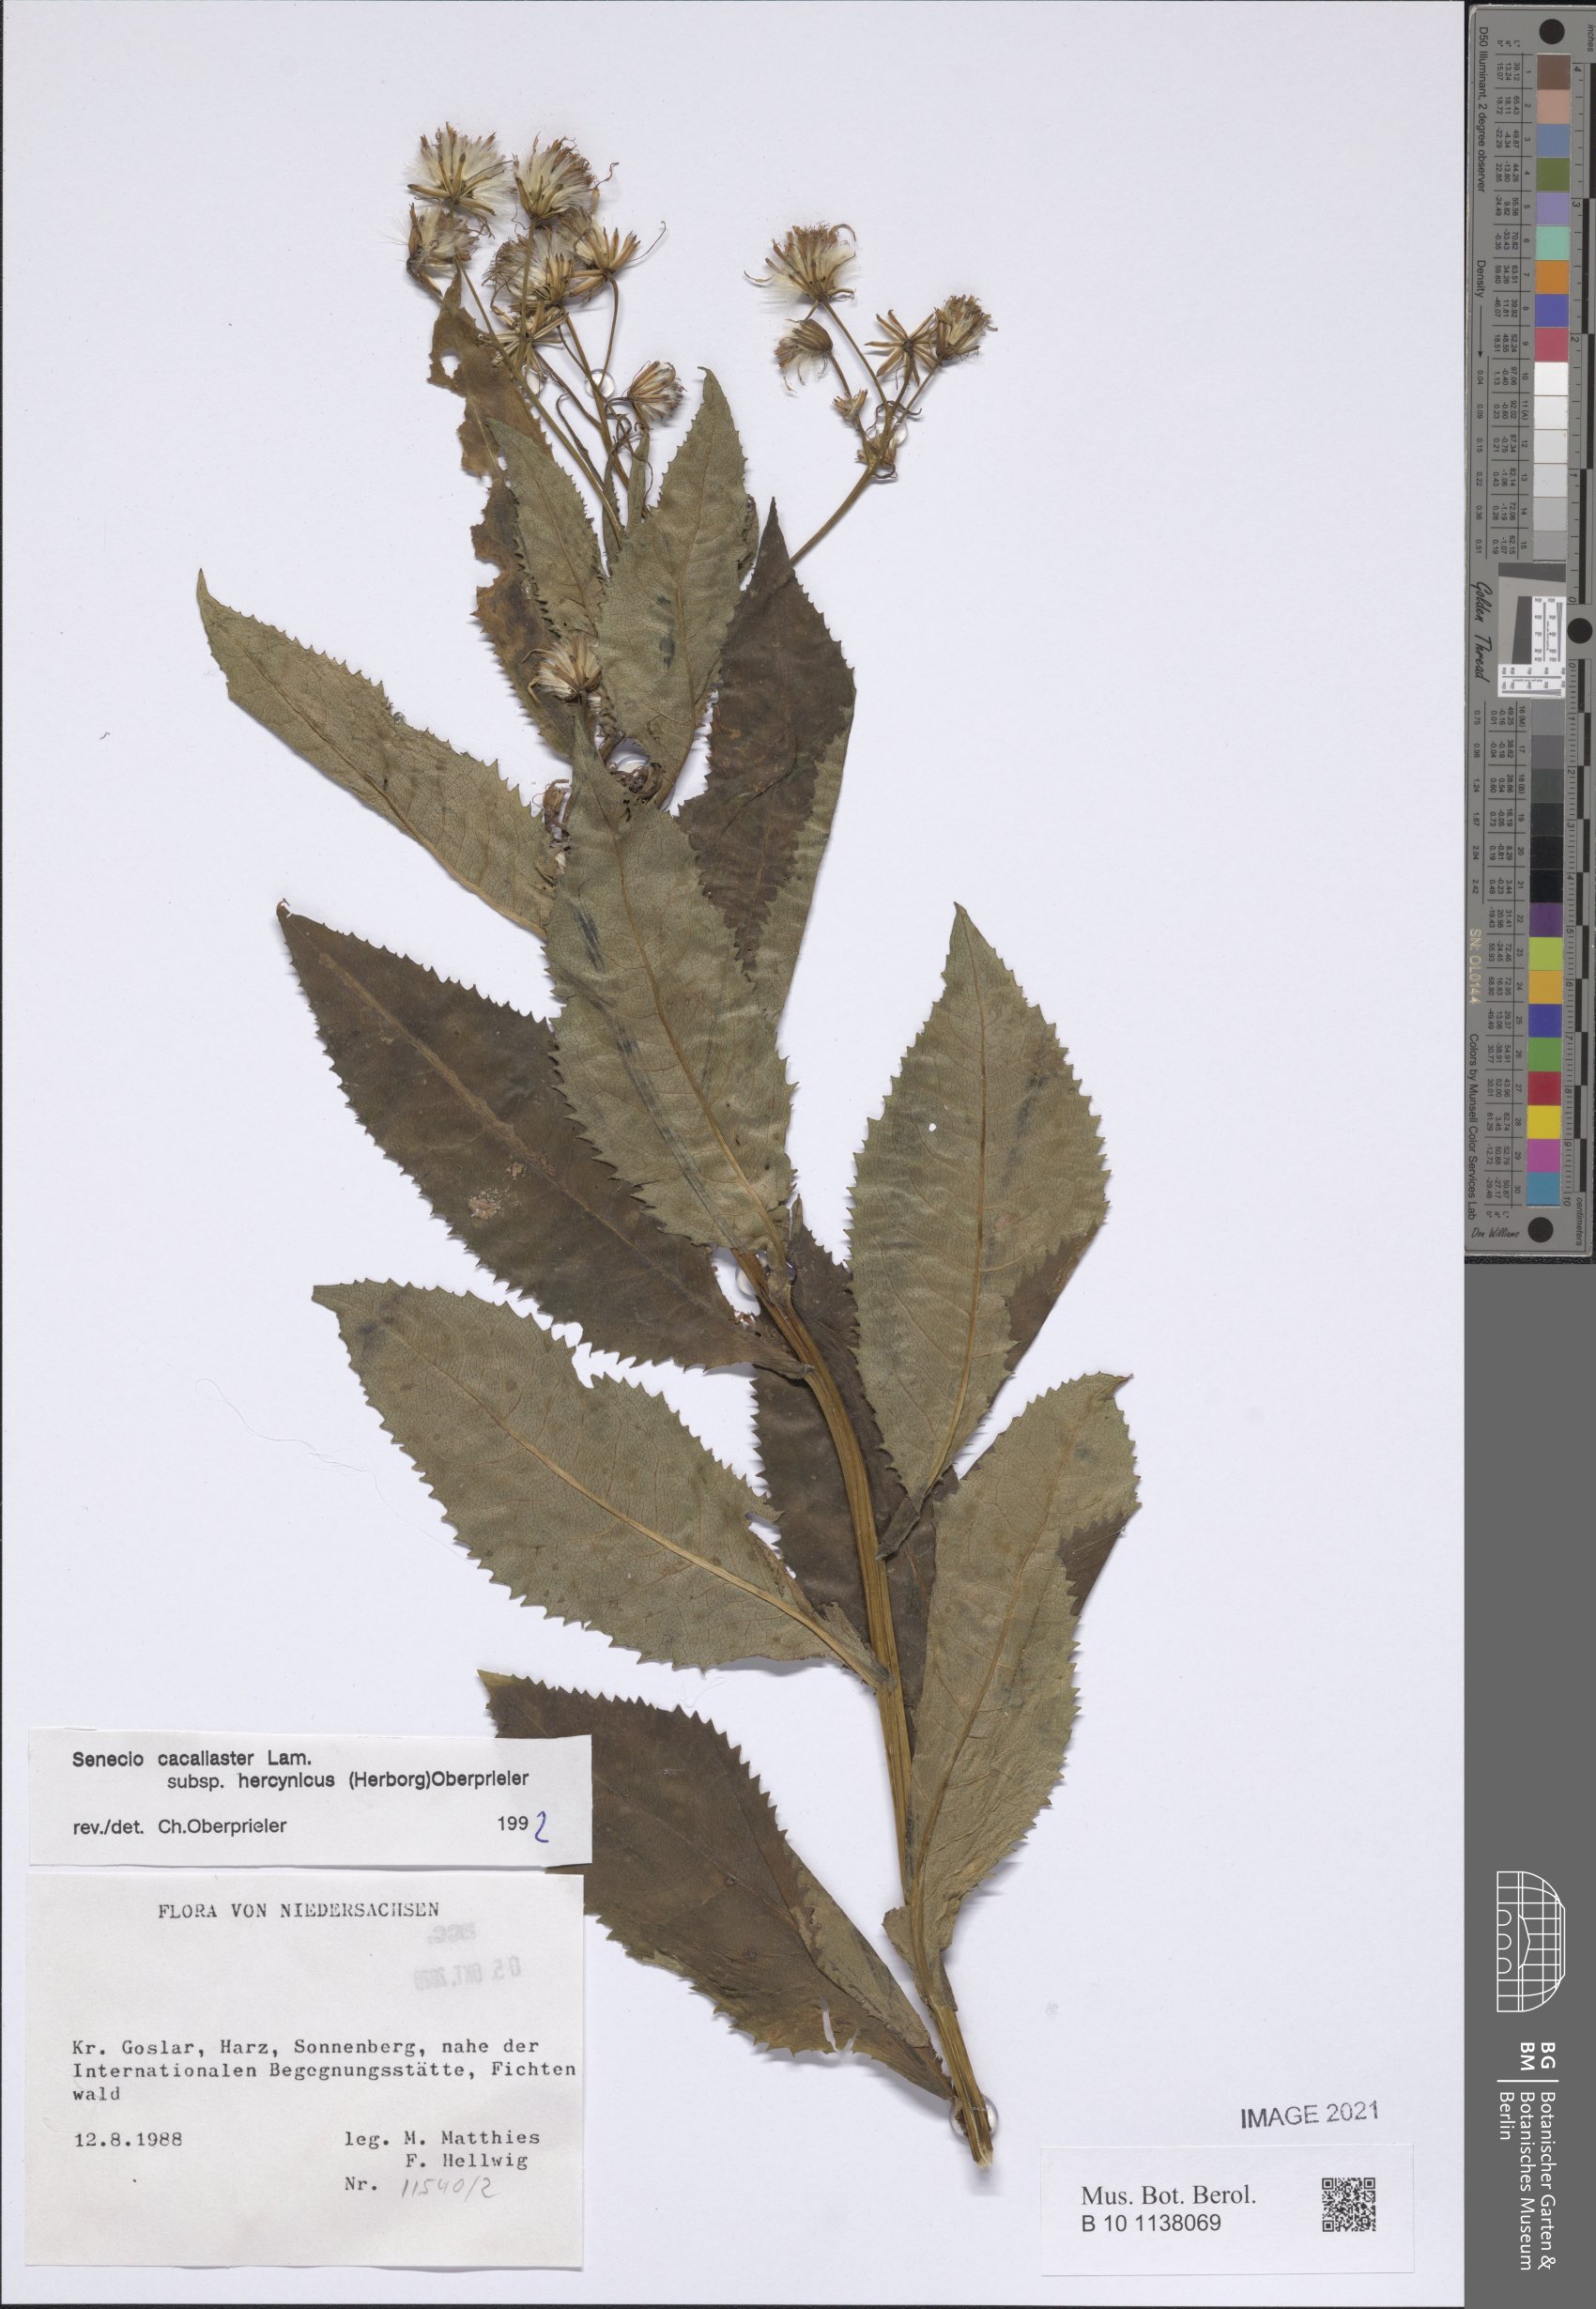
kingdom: Plantae
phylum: Tracheophyta
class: Magnoliopsida
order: Asterales
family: Asteraceae
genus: Senecio
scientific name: Senecio hercynicus
